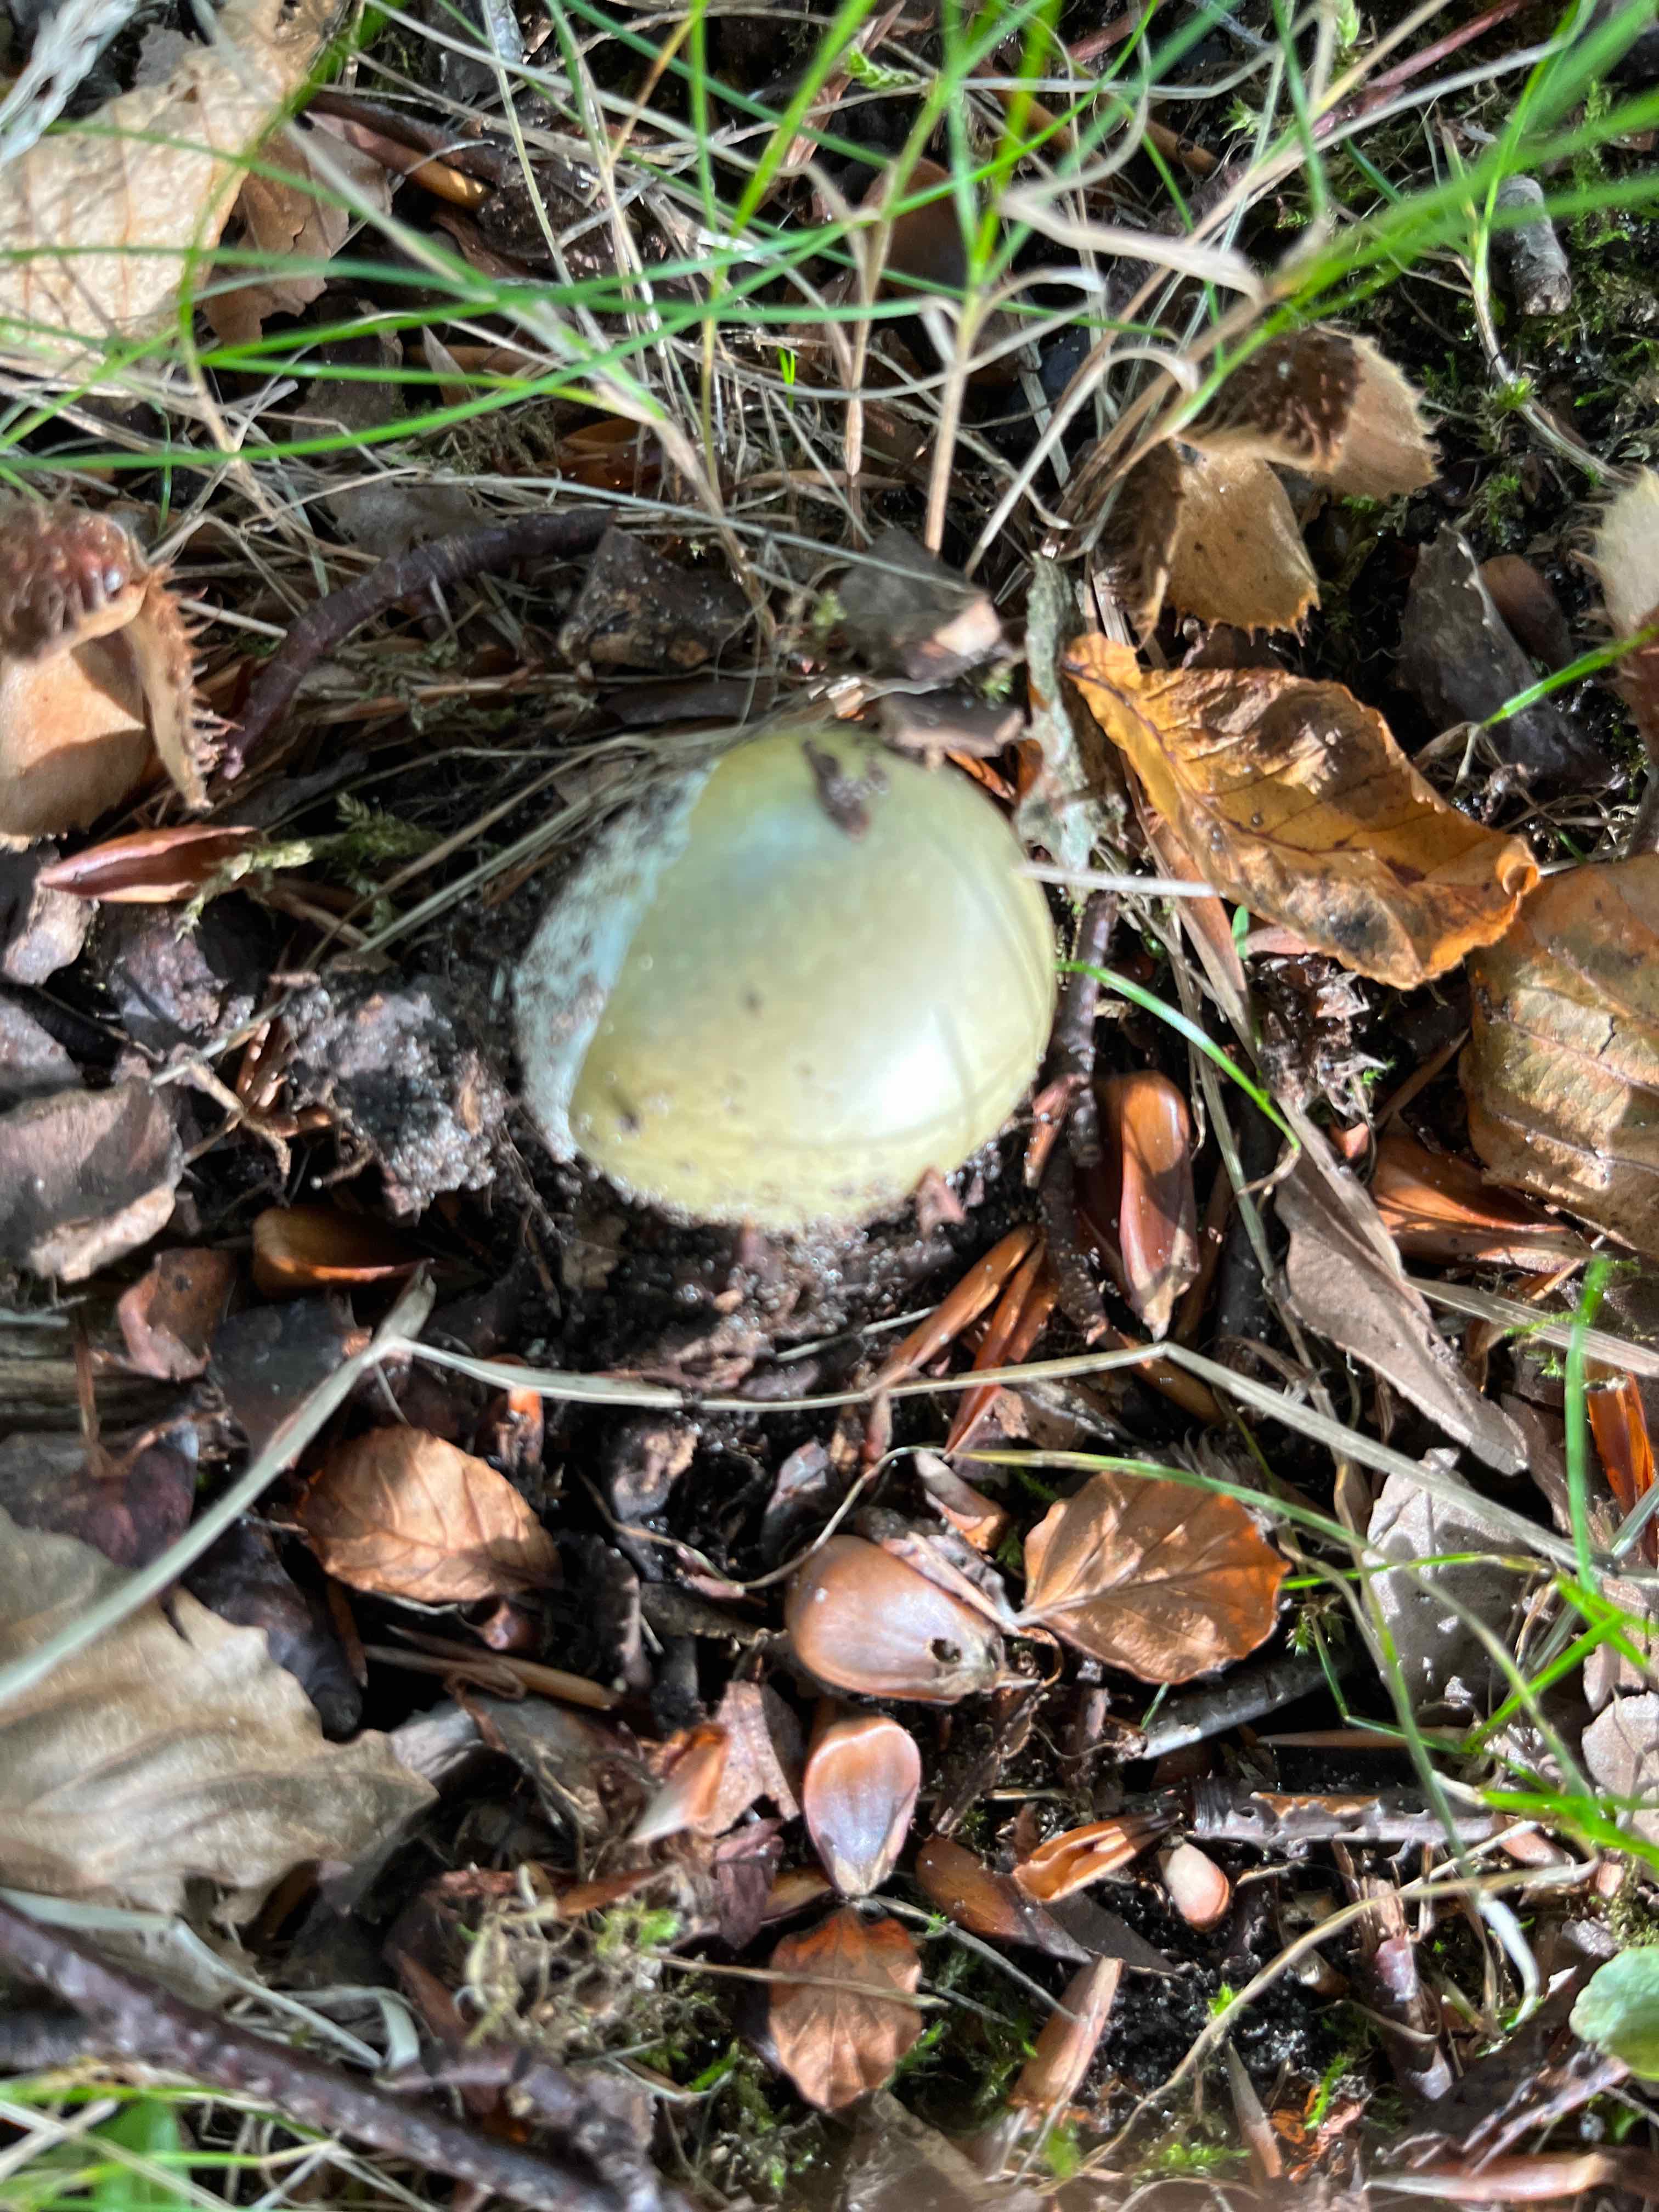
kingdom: Fungi
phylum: Basidiomycota
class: Agaricomycetes
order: Agaricales
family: Amanitaceae
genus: Amanita
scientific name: Amanita phalloides
